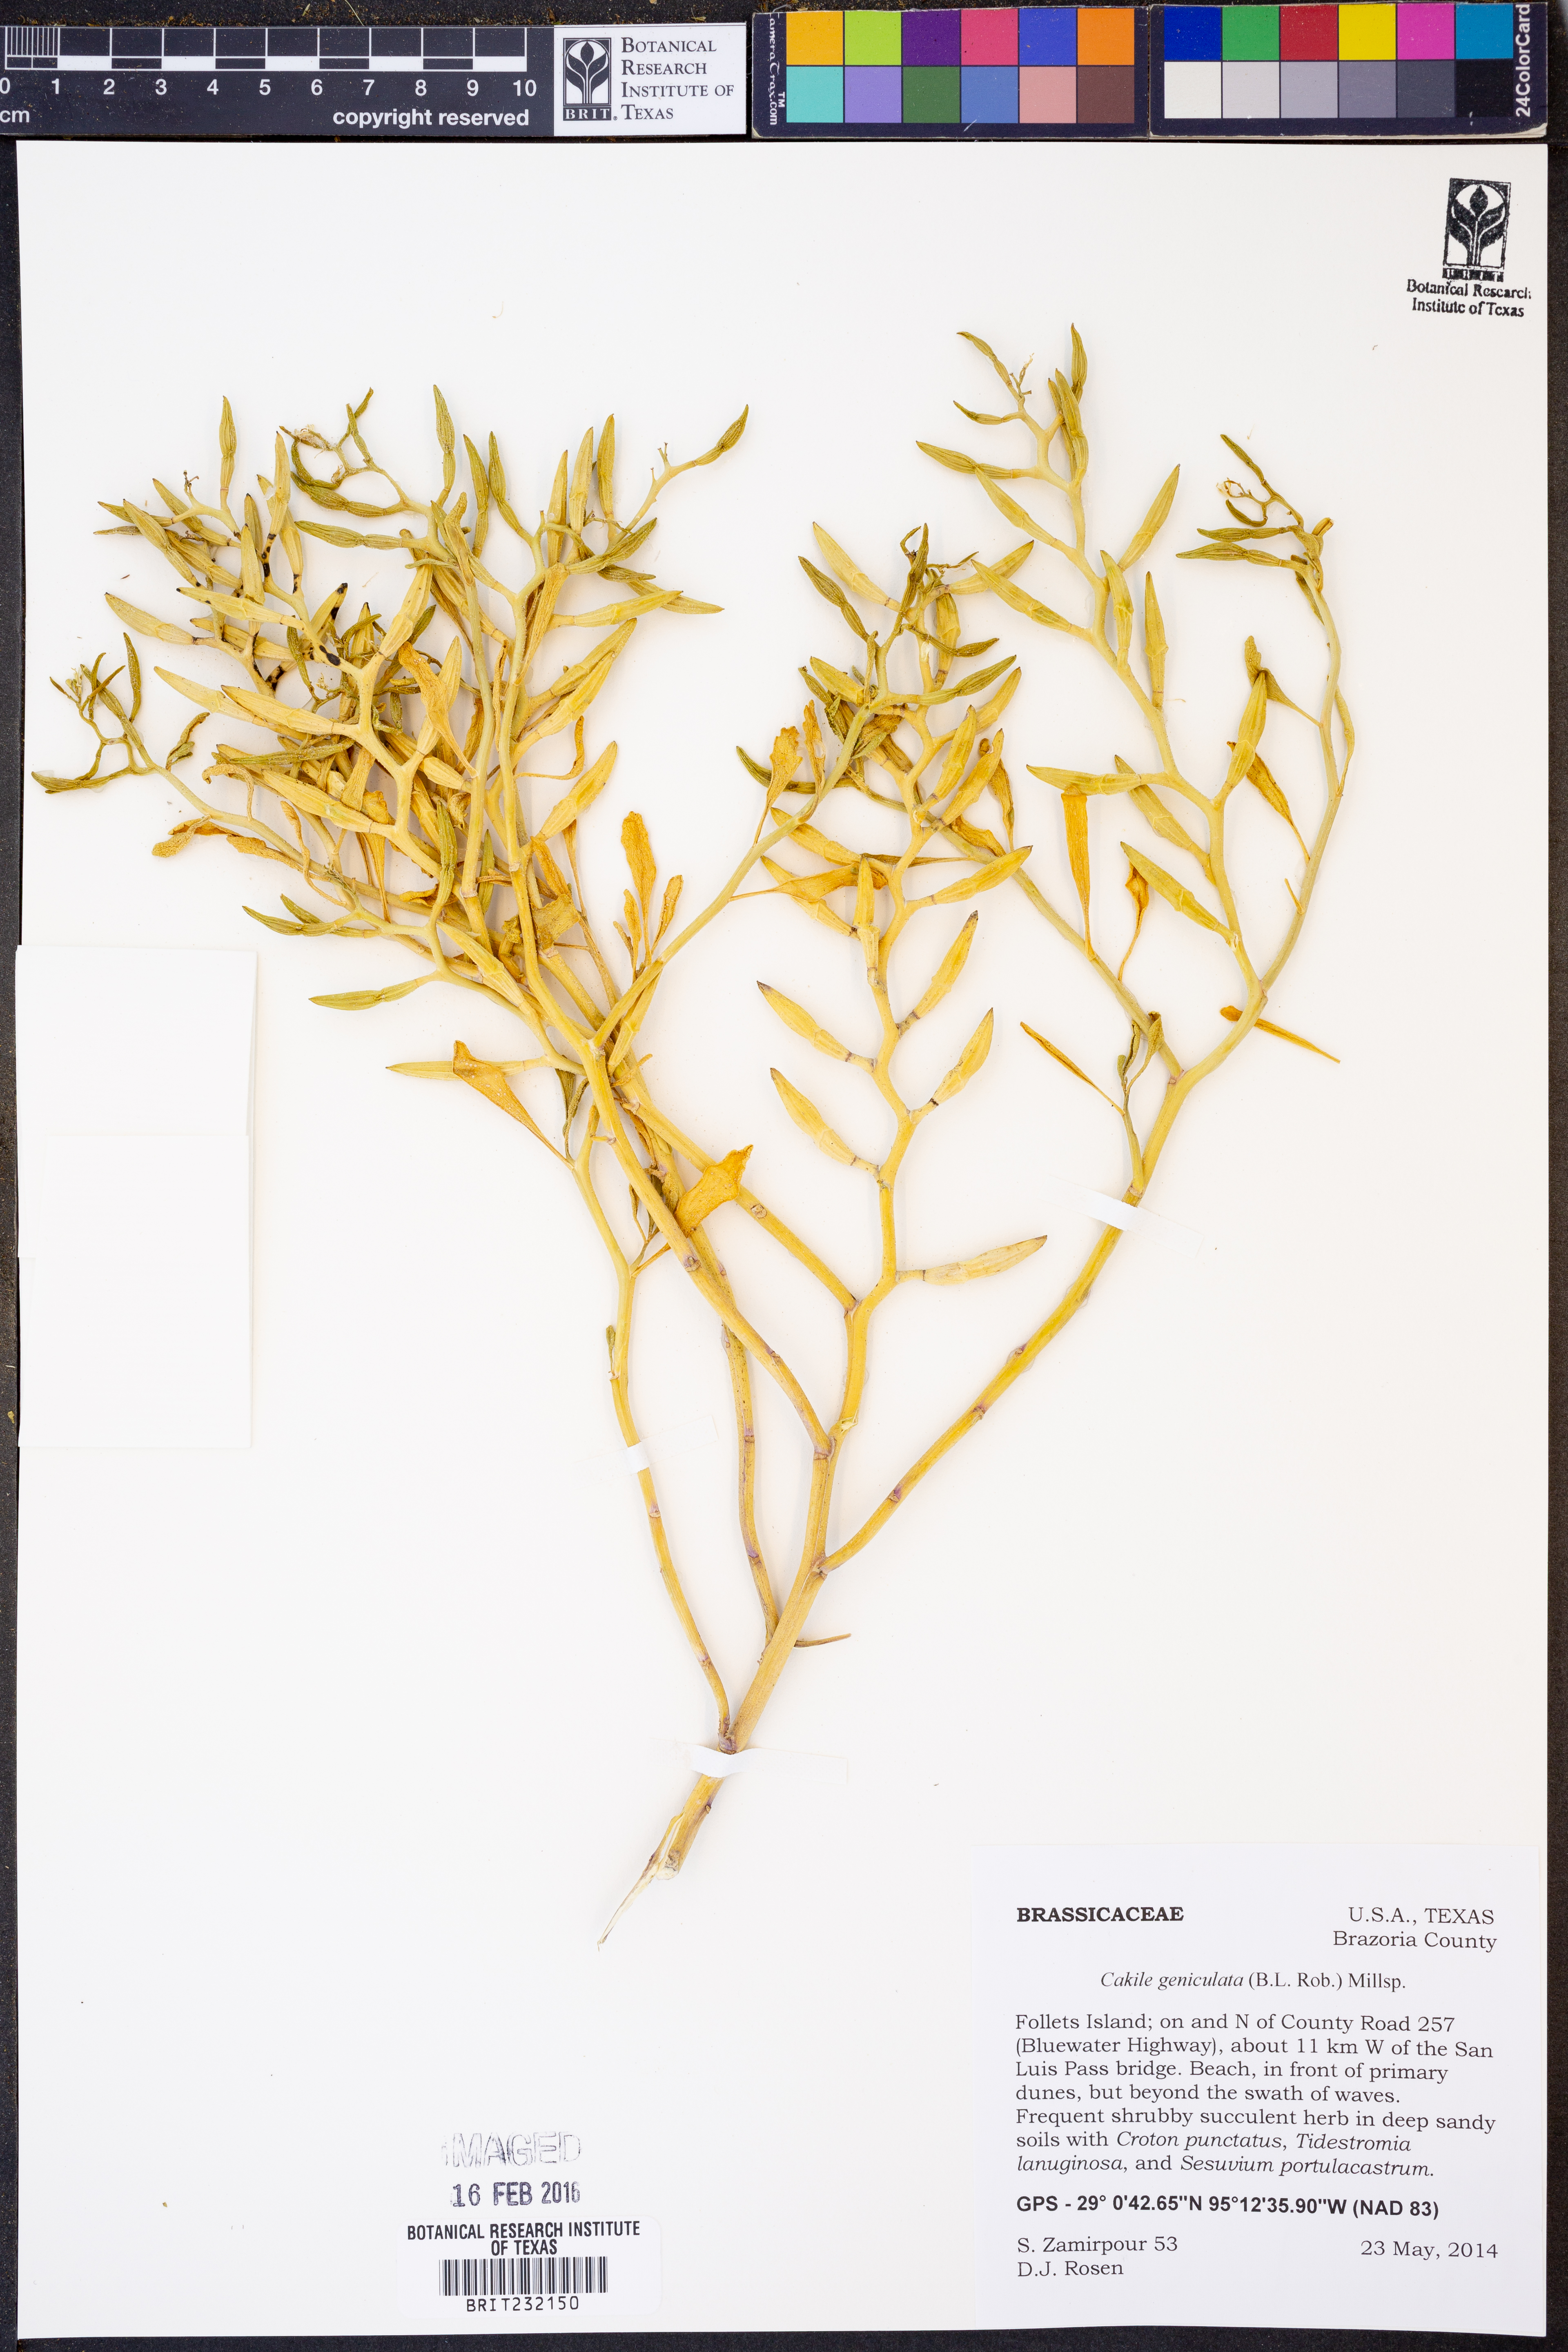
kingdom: Plantae
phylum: Tracheophyta
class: Magnoliopsida
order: Brassicales
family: Brassicaceae
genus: Cakile
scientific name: Cakile geniculata
